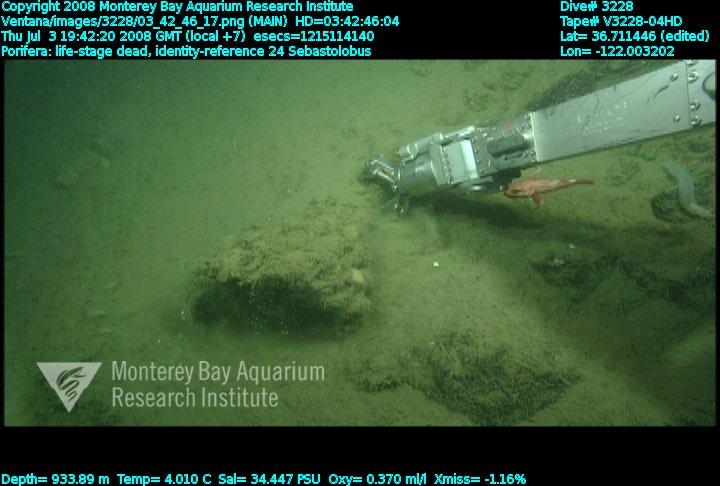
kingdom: Animalia
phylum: Porifera
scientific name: Porifera
